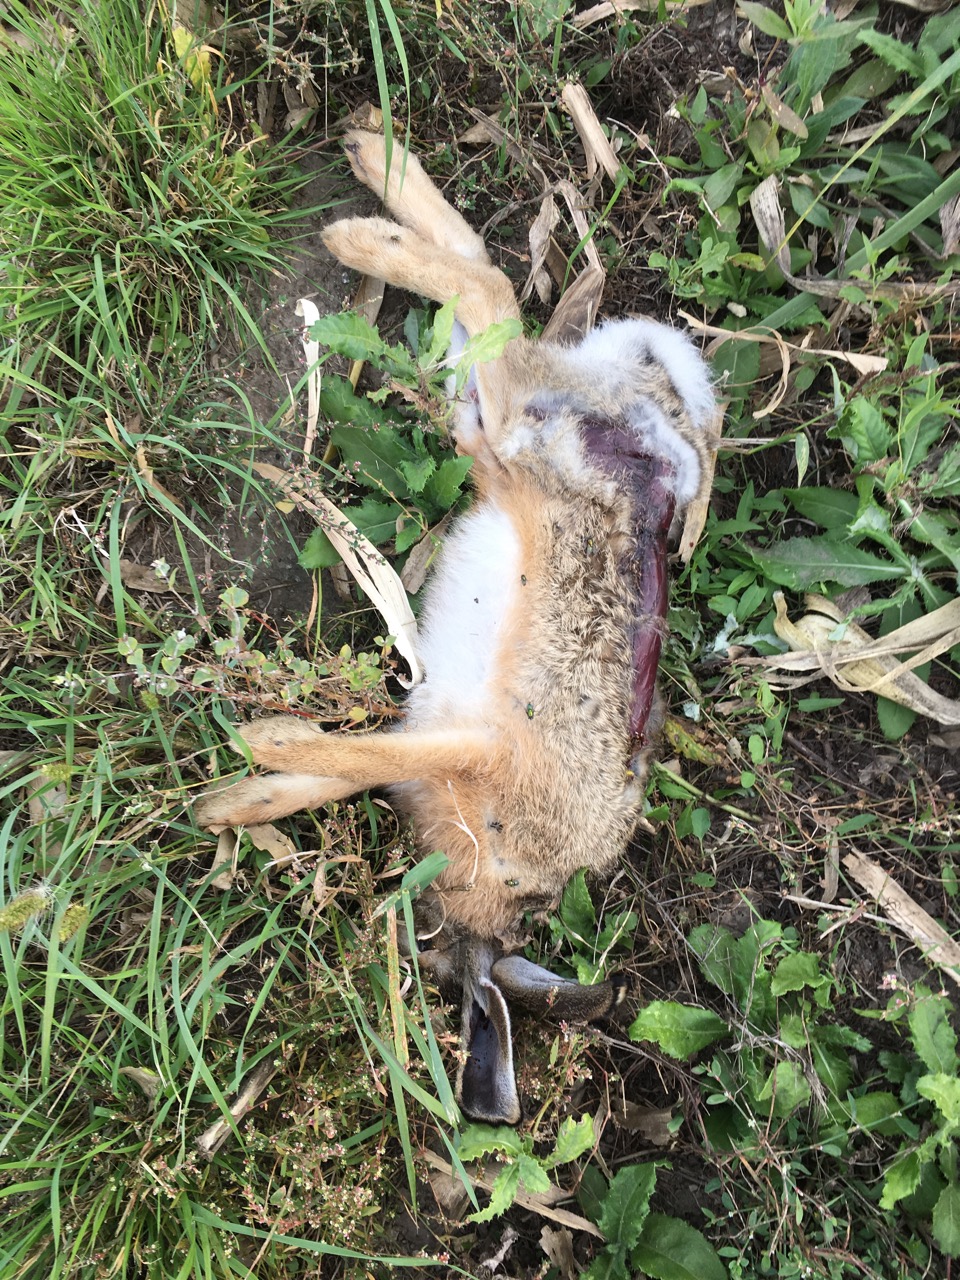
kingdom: Animalia
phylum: Chordata
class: Mammalia
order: Lagomorpha
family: Leporidae
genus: Lepus
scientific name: Lepus europaeus
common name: European hare
